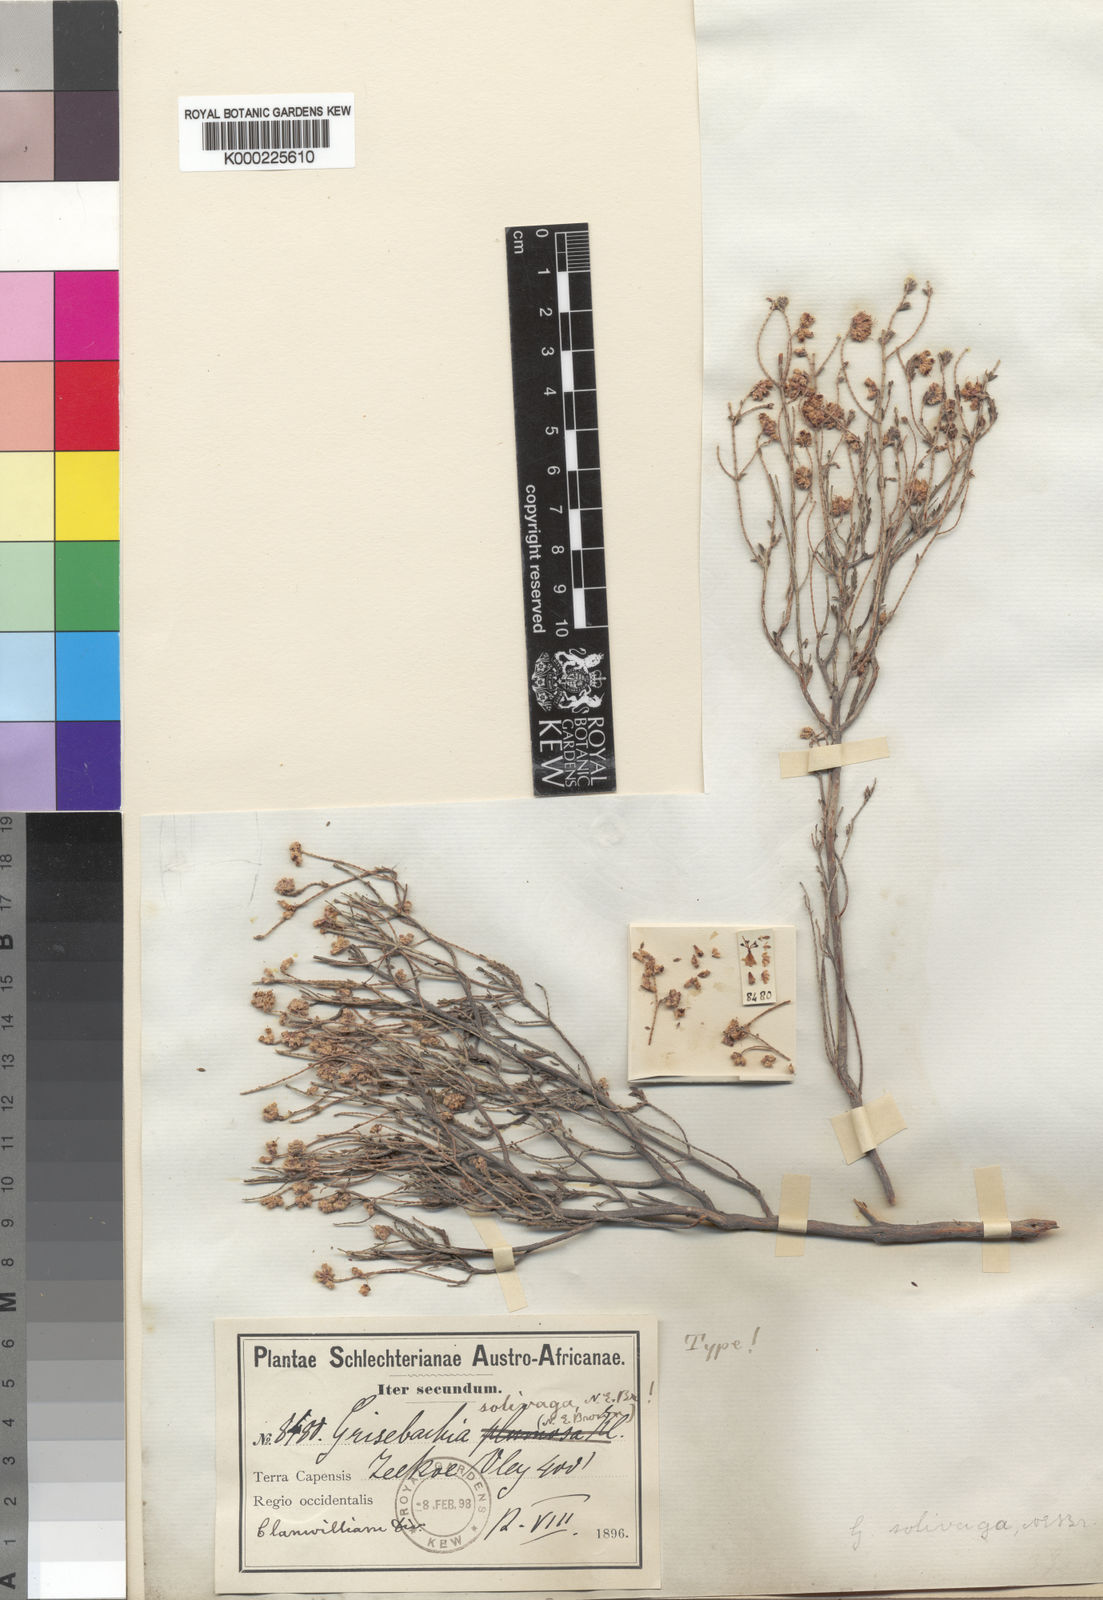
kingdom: Plantae
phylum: Tracheophyta
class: Magnoliopsida
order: Ericales
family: Ericaceae
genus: Erica
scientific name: Erica plumosa
